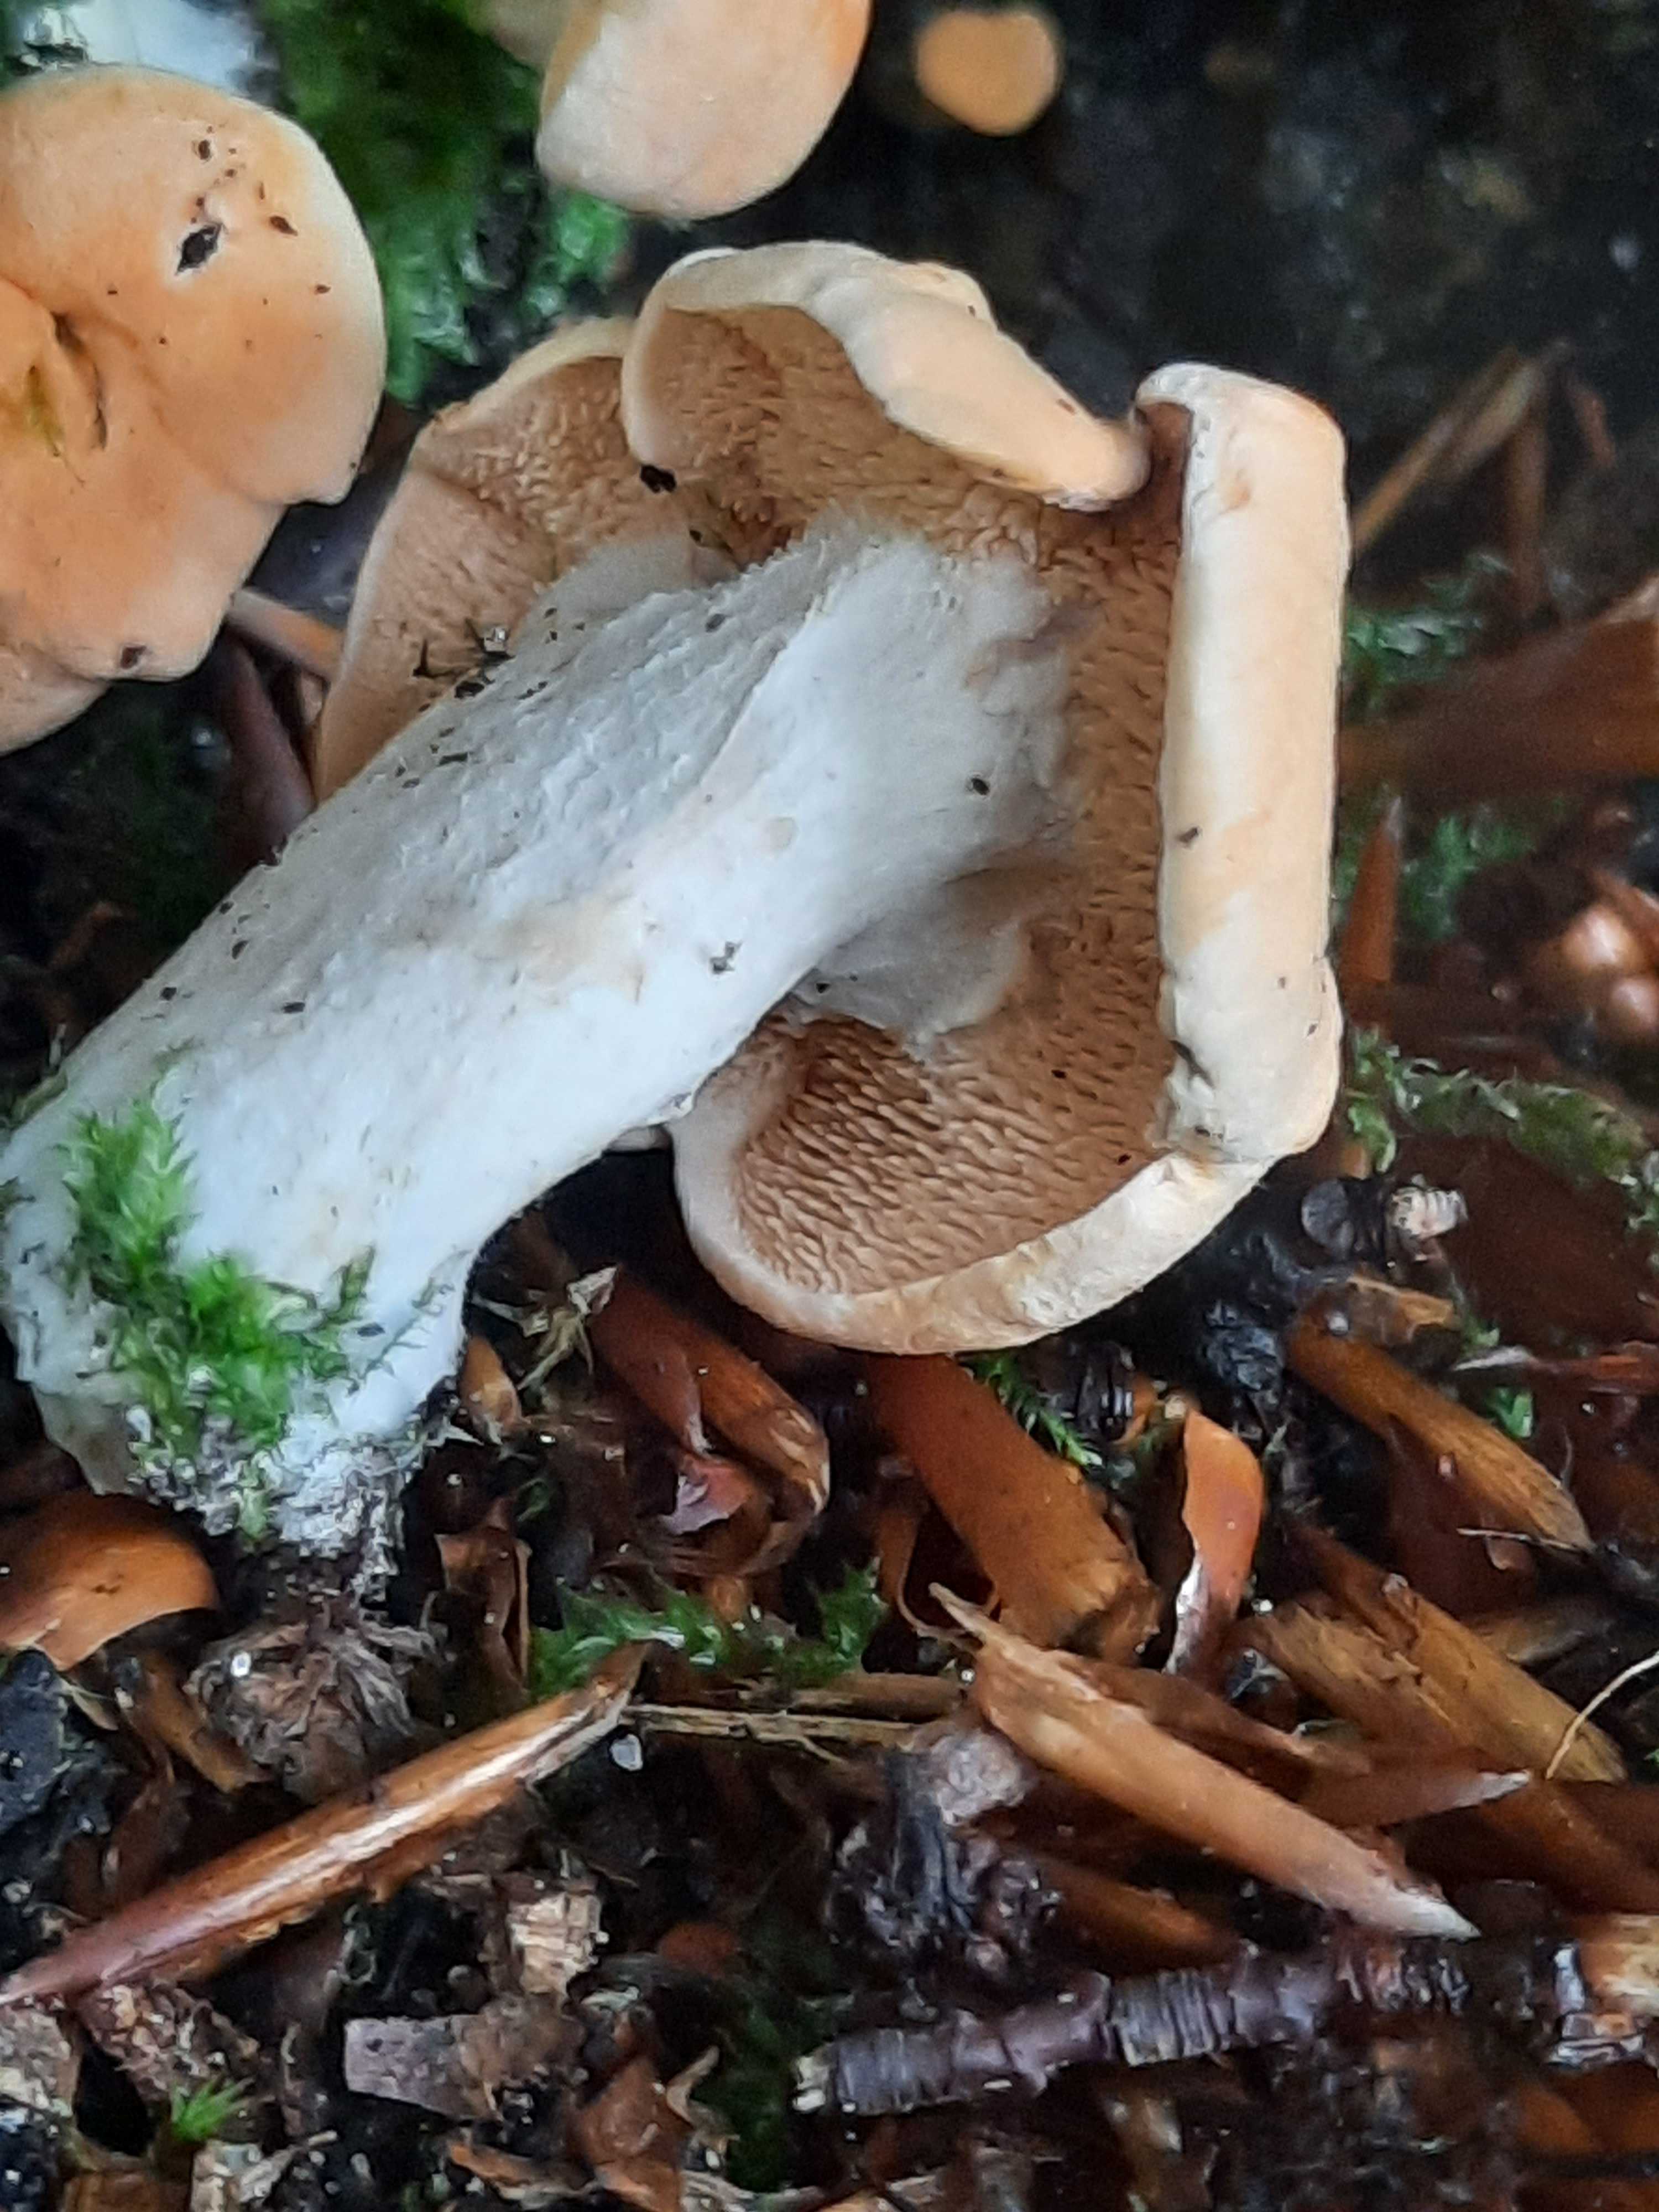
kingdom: Fungi
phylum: Basidiomycota
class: Agaricomycetes
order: Cantharellales
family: Hydnaceae
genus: Hydnum
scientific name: Hydnum
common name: pigsvamp
